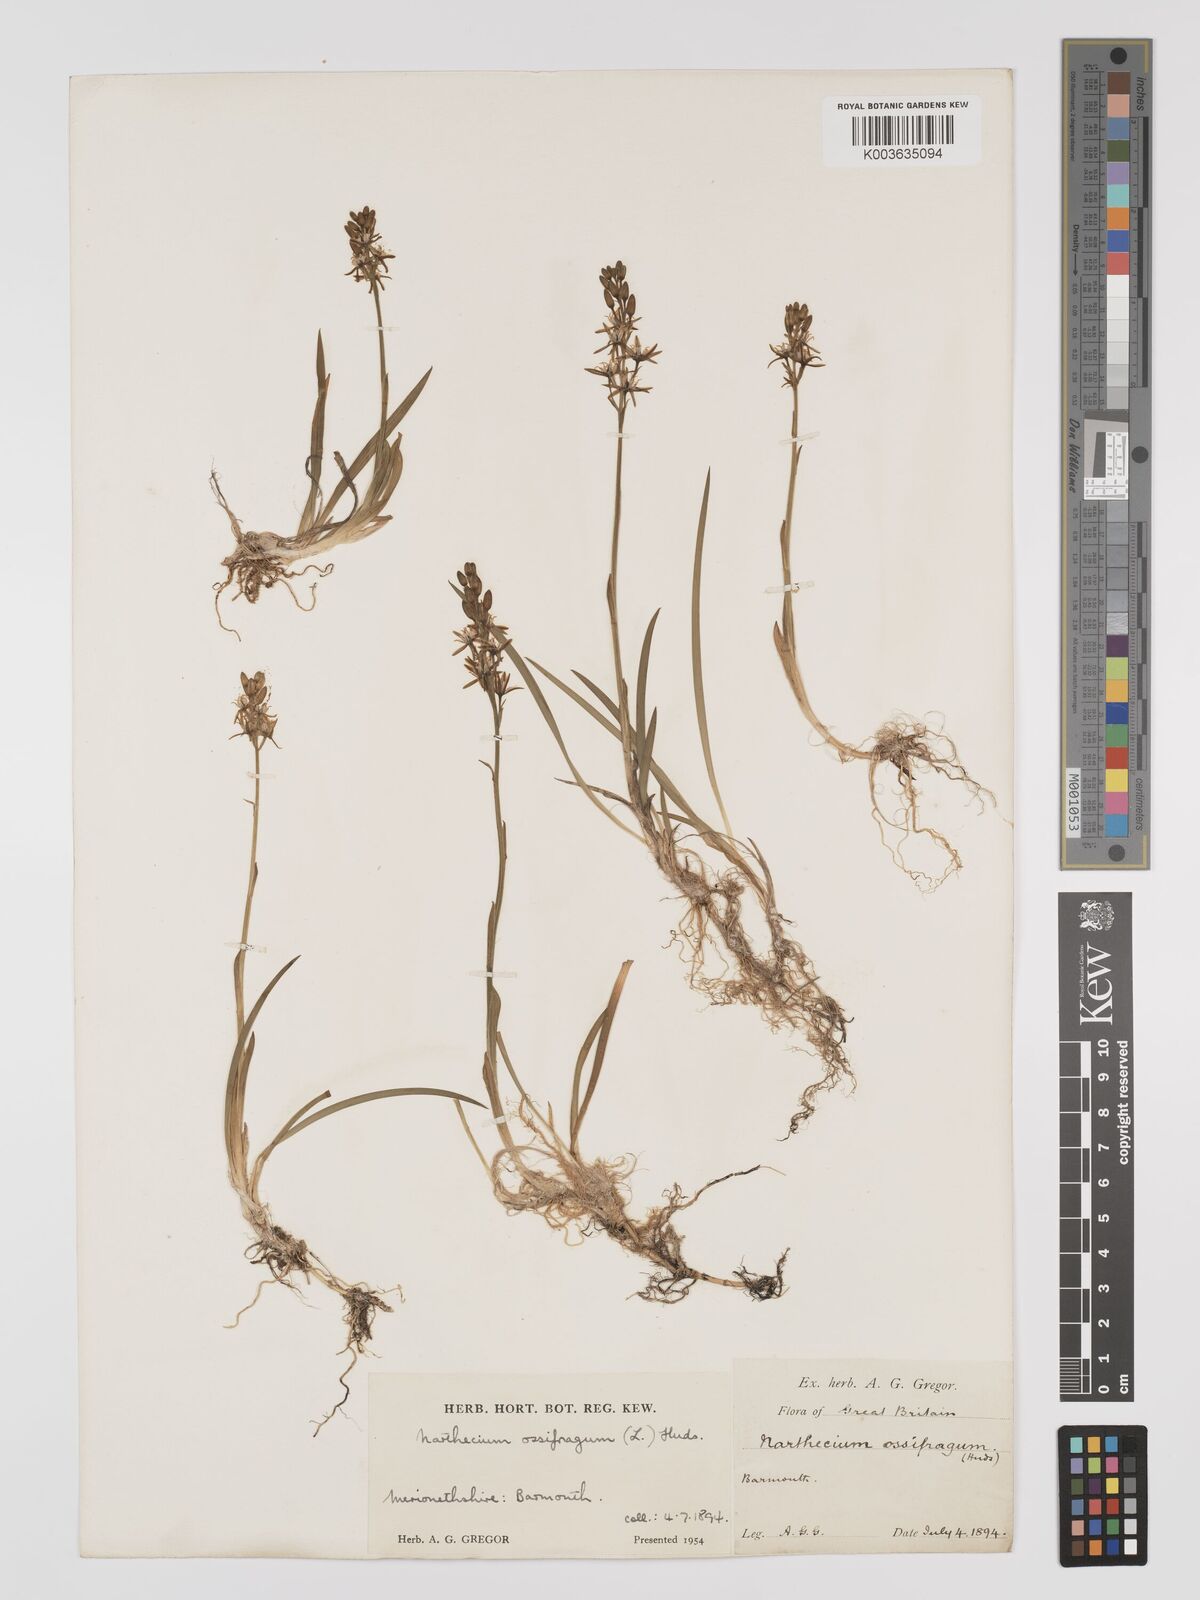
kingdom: Plantae
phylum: Tracheophyta
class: Liliopsida
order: Dioscoreales
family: Nartheciaceae
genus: Narthecium
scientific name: Narthecium
